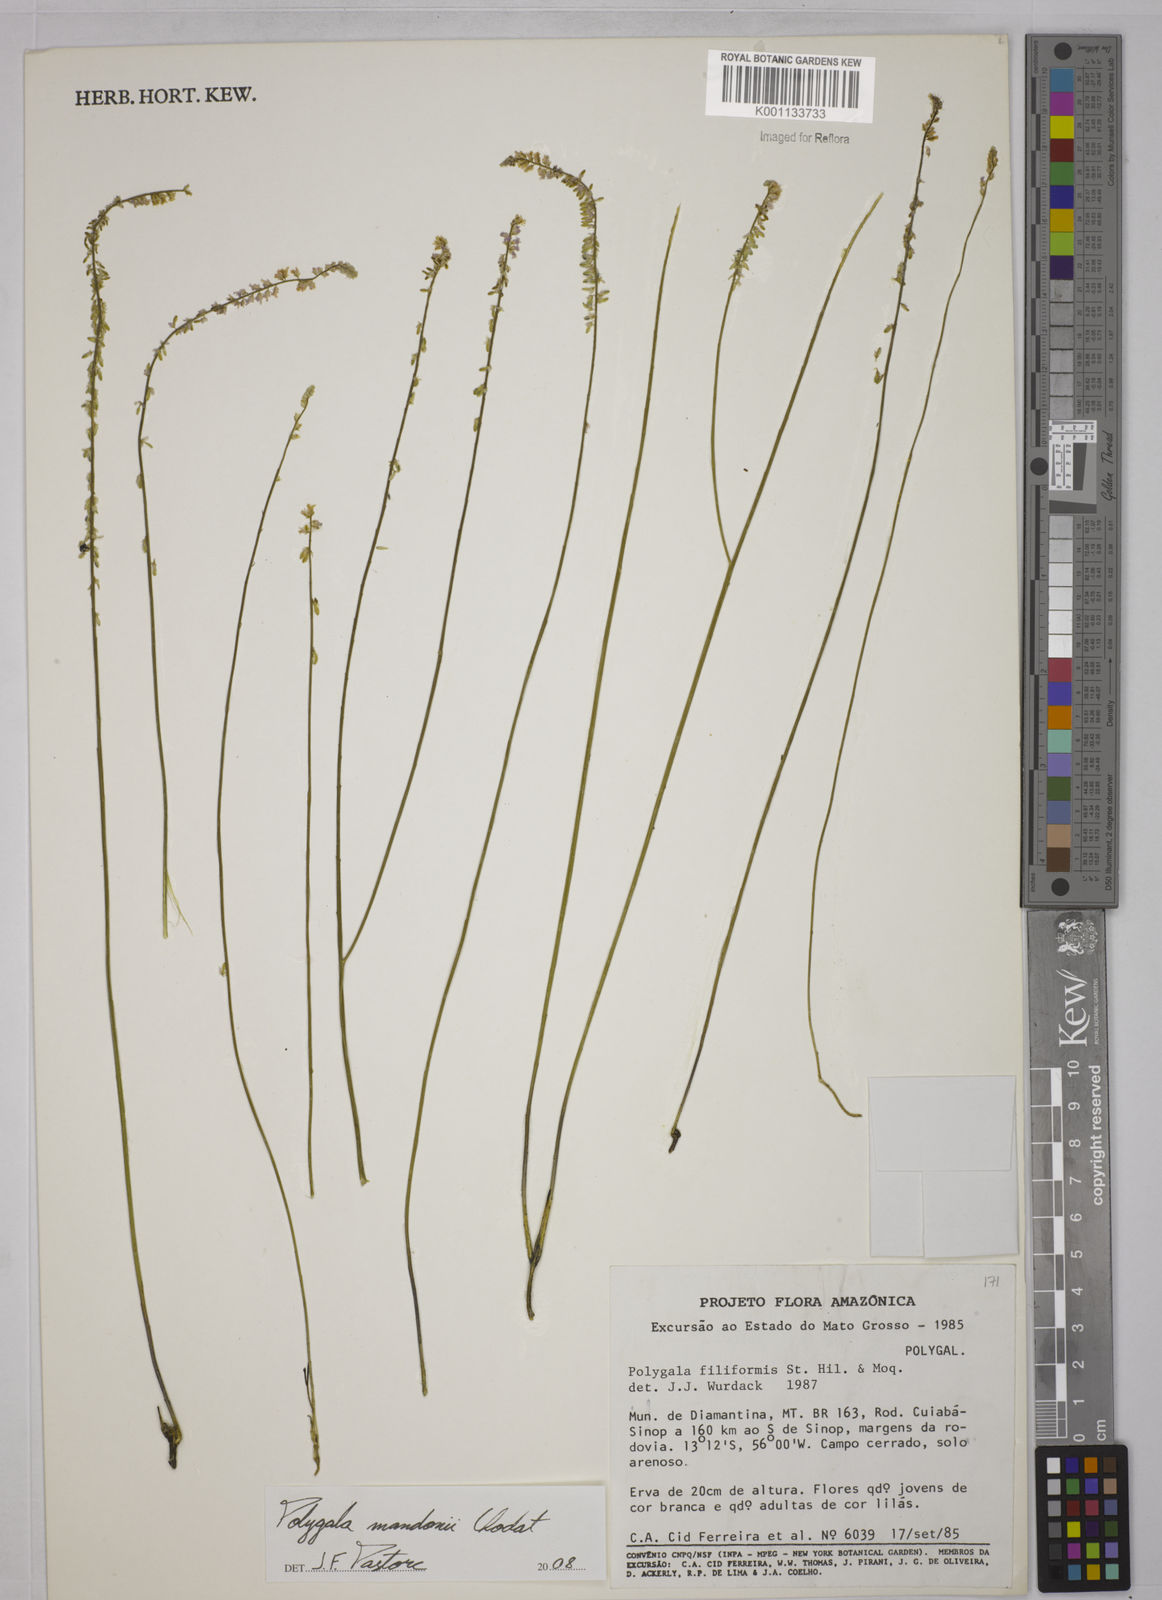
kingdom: Plantae
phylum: Tracheophyta
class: Magnoliopsida
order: Fabales
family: Polygalaceae
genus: Polygala
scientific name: Polygala mandonii
